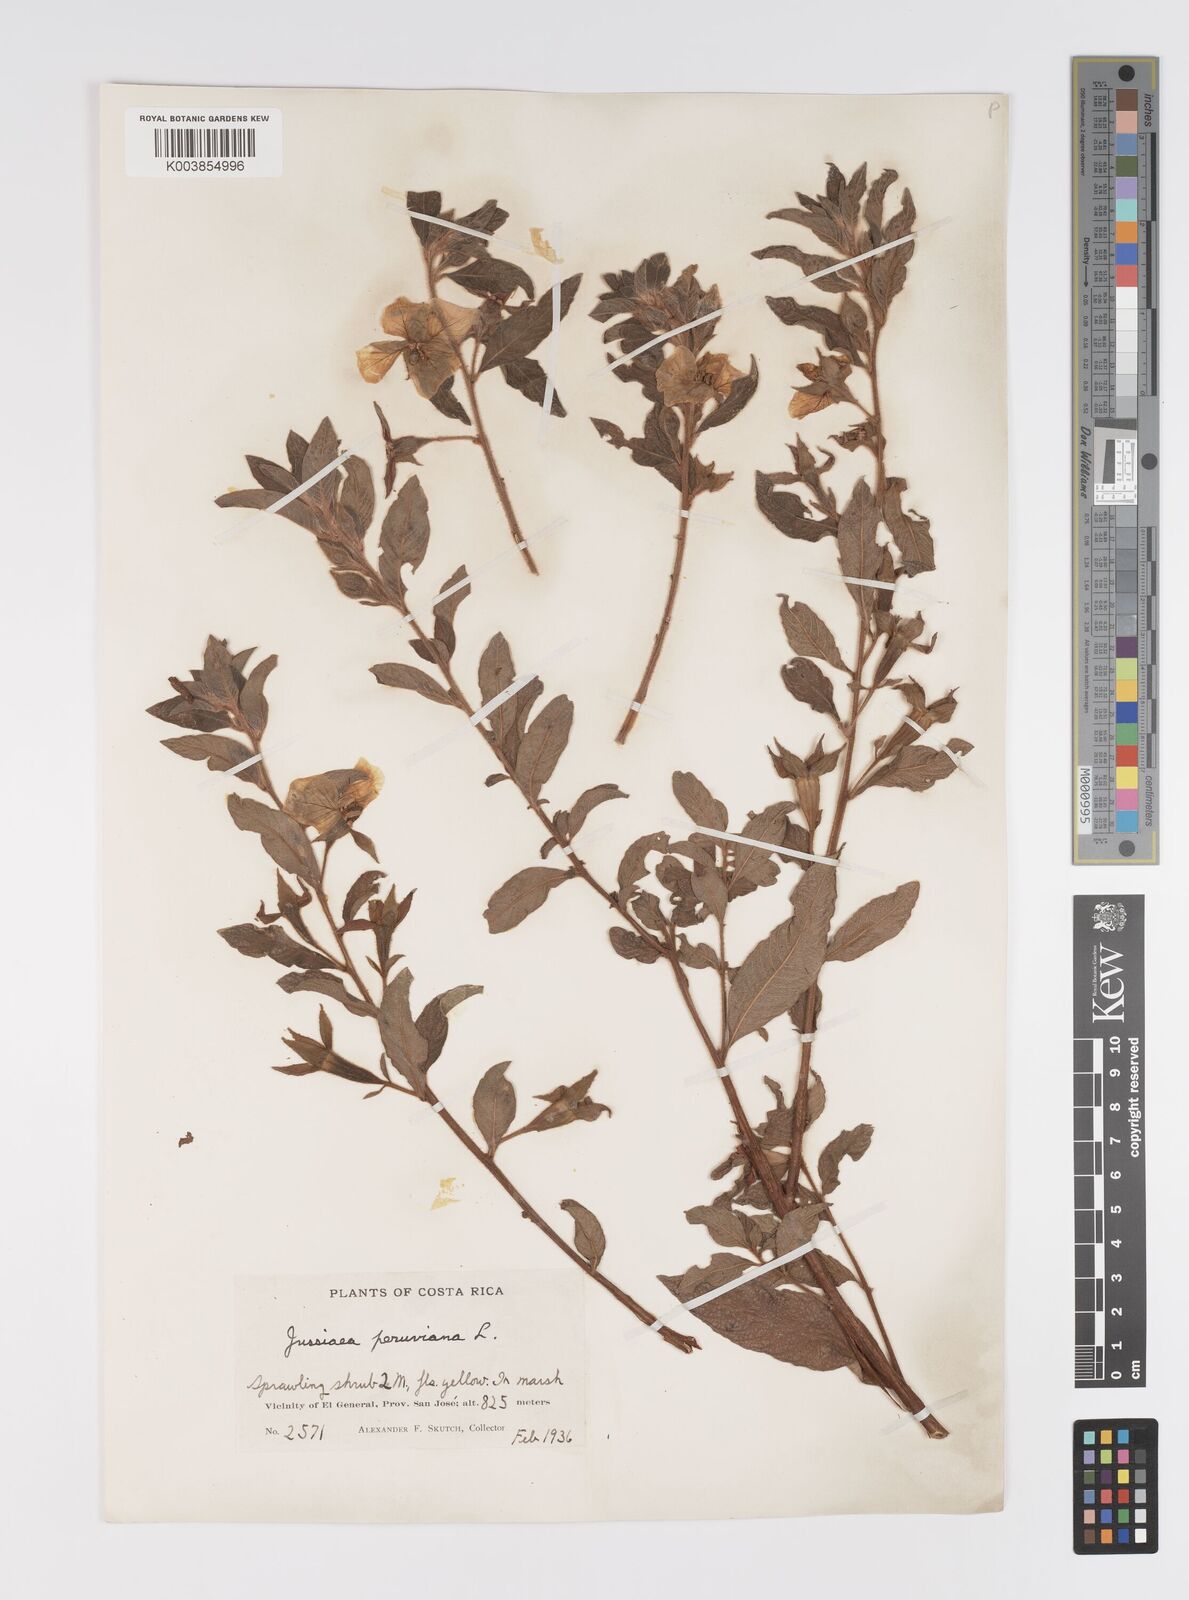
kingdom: Plantae
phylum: Tracheophyta
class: Magnoliopsida
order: Myrtales
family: Onagraceae
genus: Ludwigia
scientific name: Ludwigia peruviana
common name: Peruvian primrose-willow
